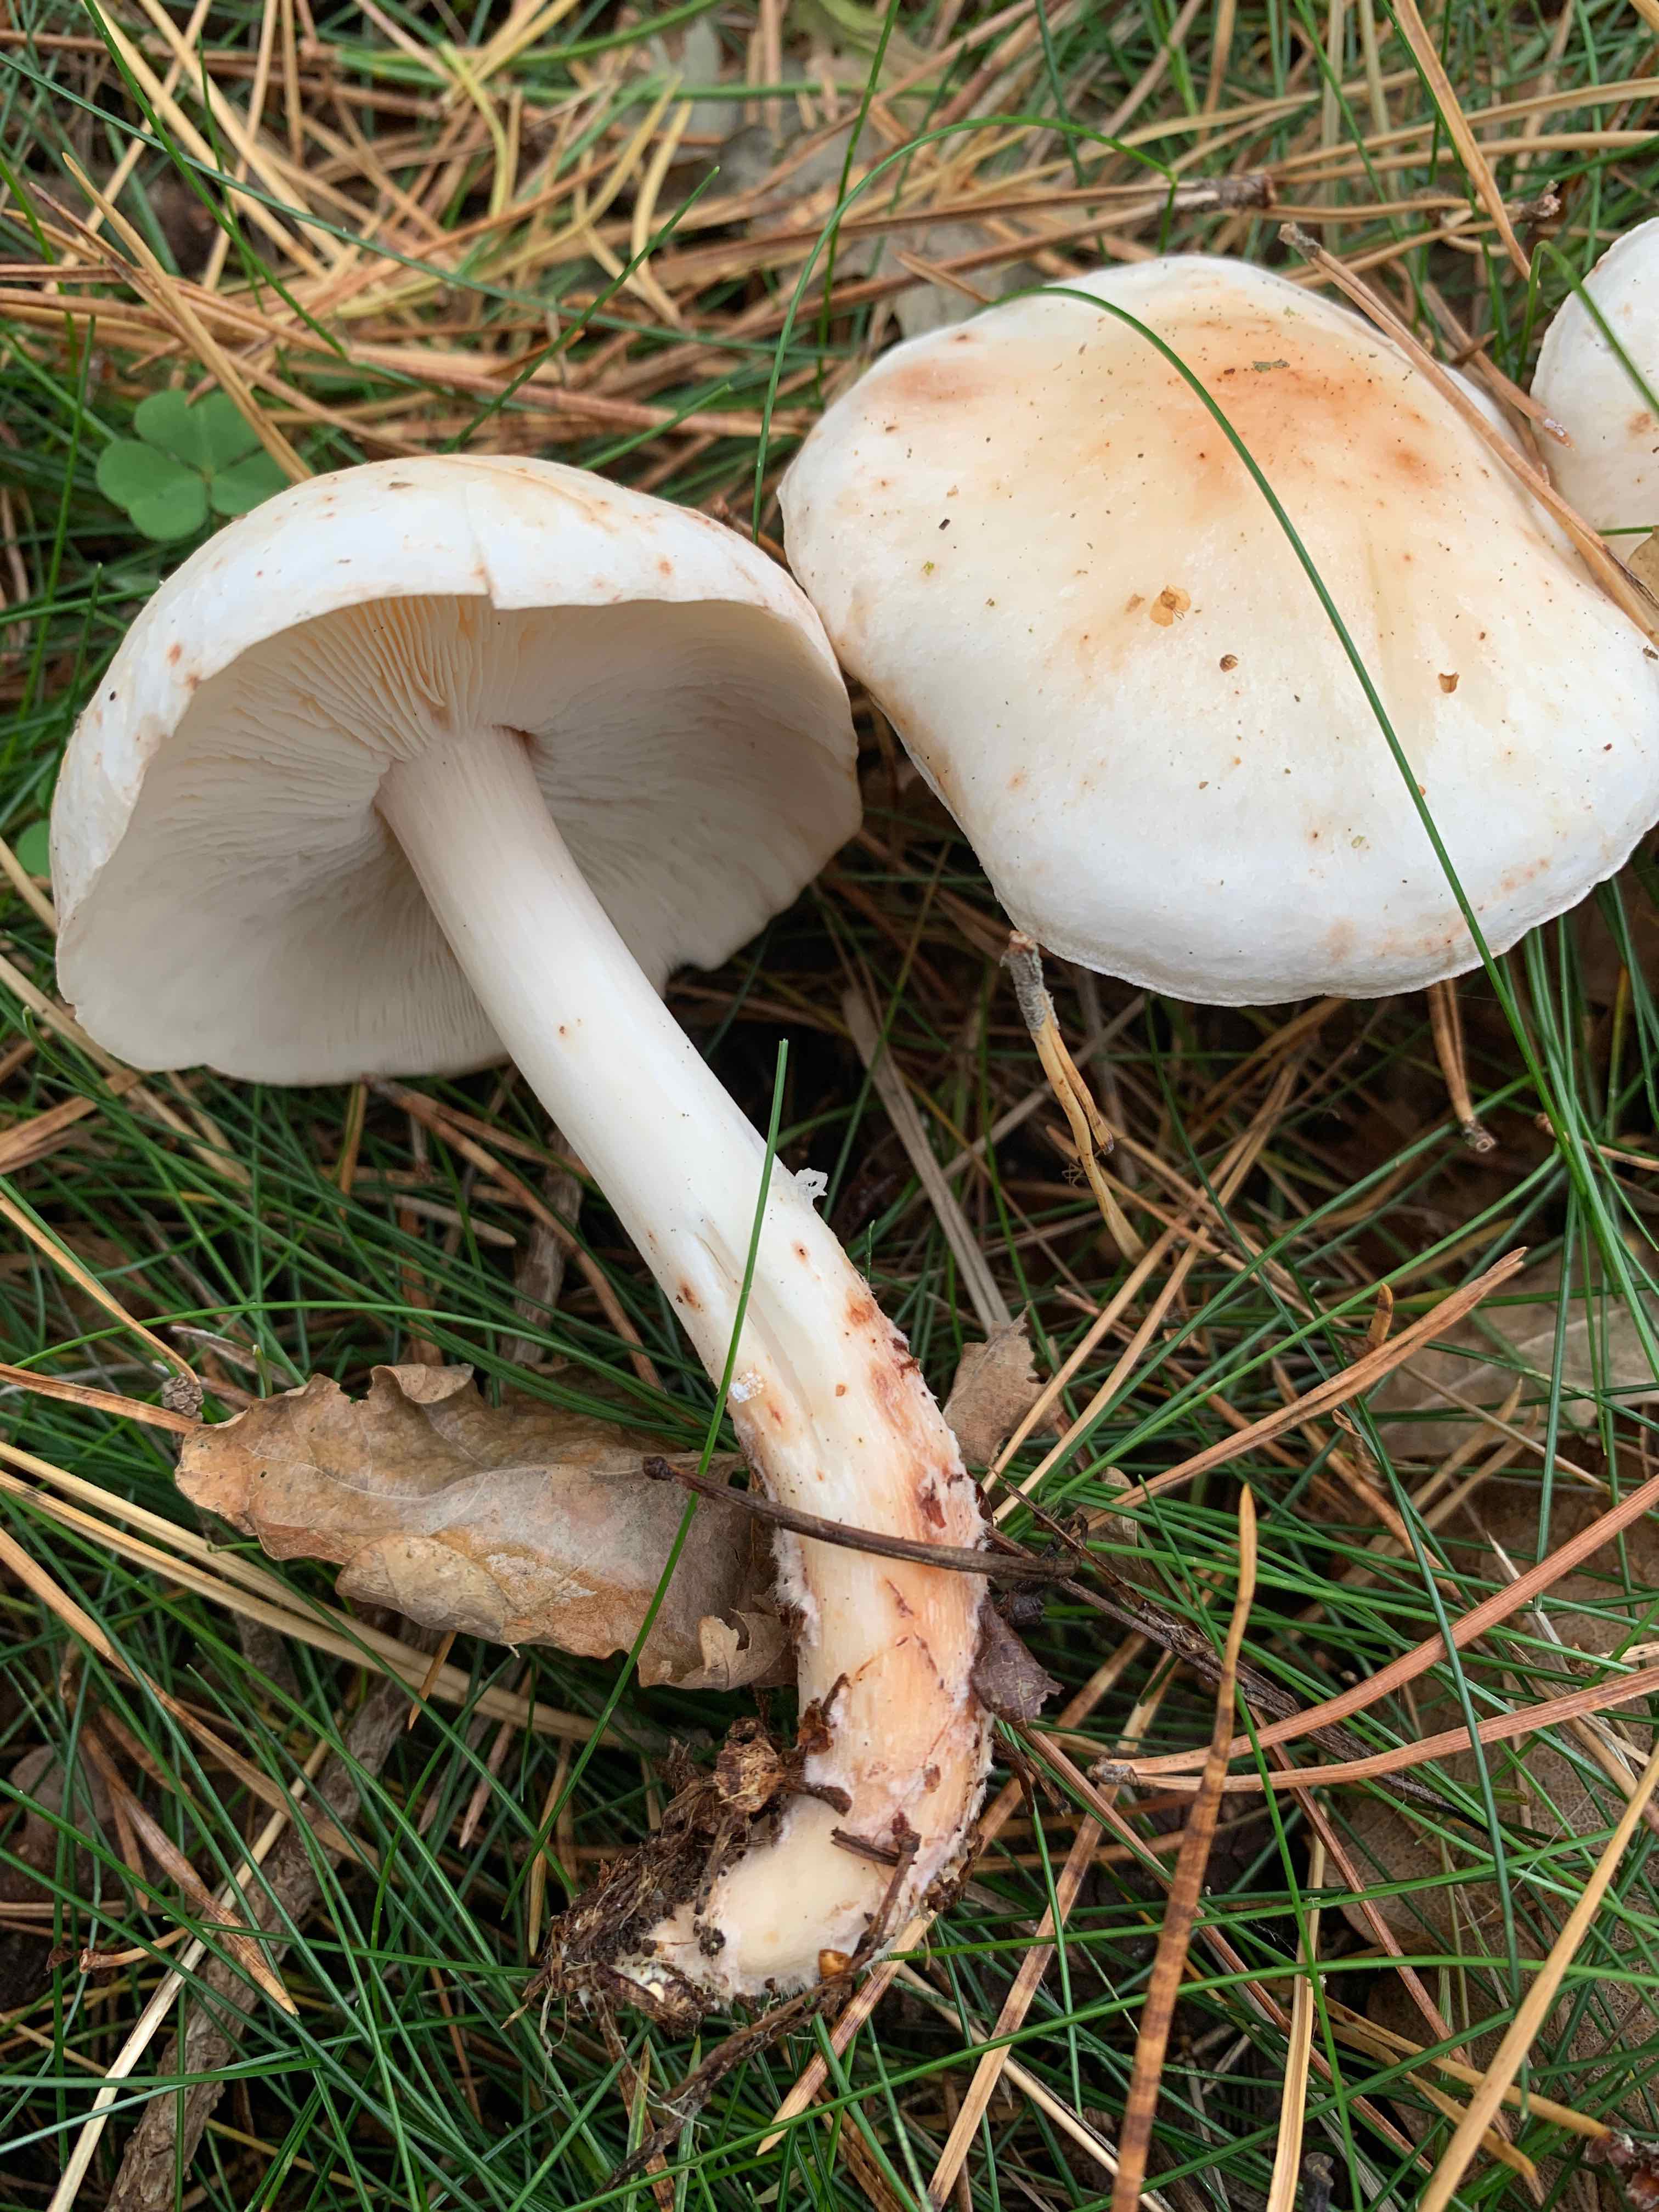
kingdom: Fungi
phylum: Basidiomycota
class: Agaricomycetes
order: Agaricales
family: Omphalotaceae
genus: Rhodocollybia
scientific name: Rhodocollybia maculata
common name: plettet fladhat
